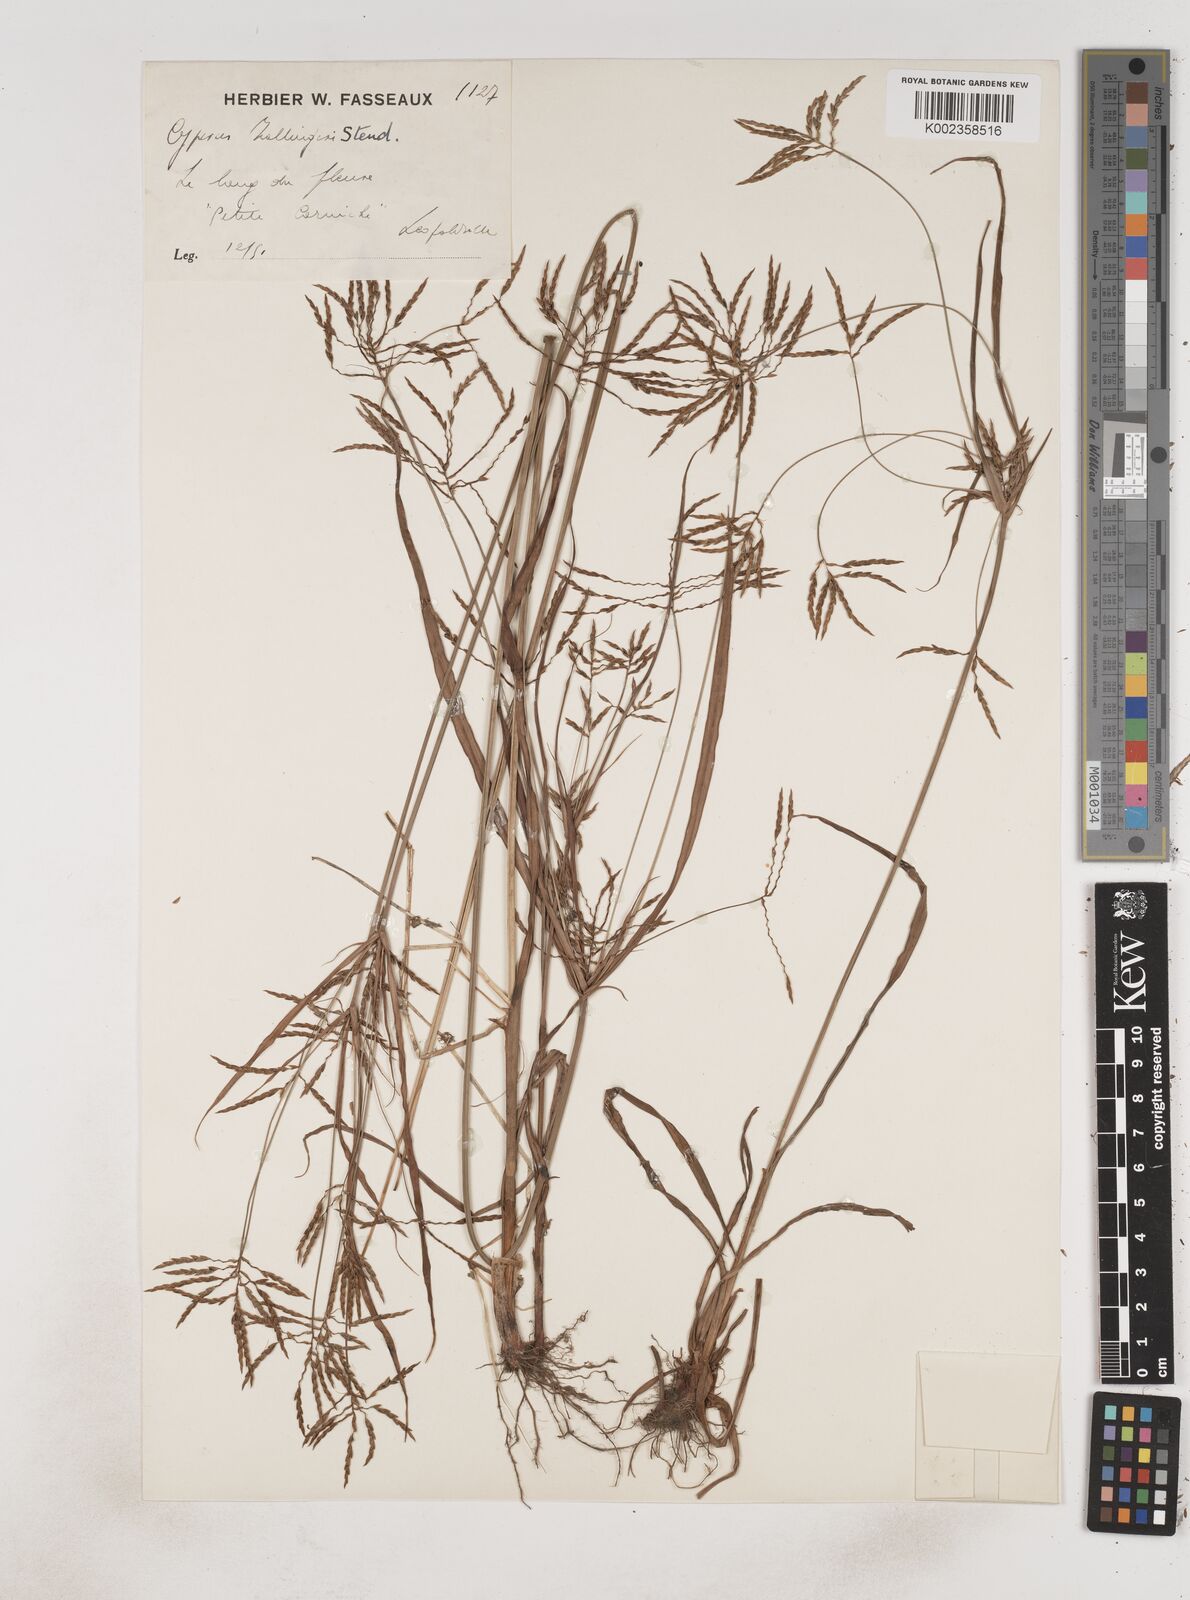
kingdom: Plantae
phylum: Tracheophyta
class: Liliopsida
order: Poales
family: Cyperaceae
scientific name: Cyperaceae
